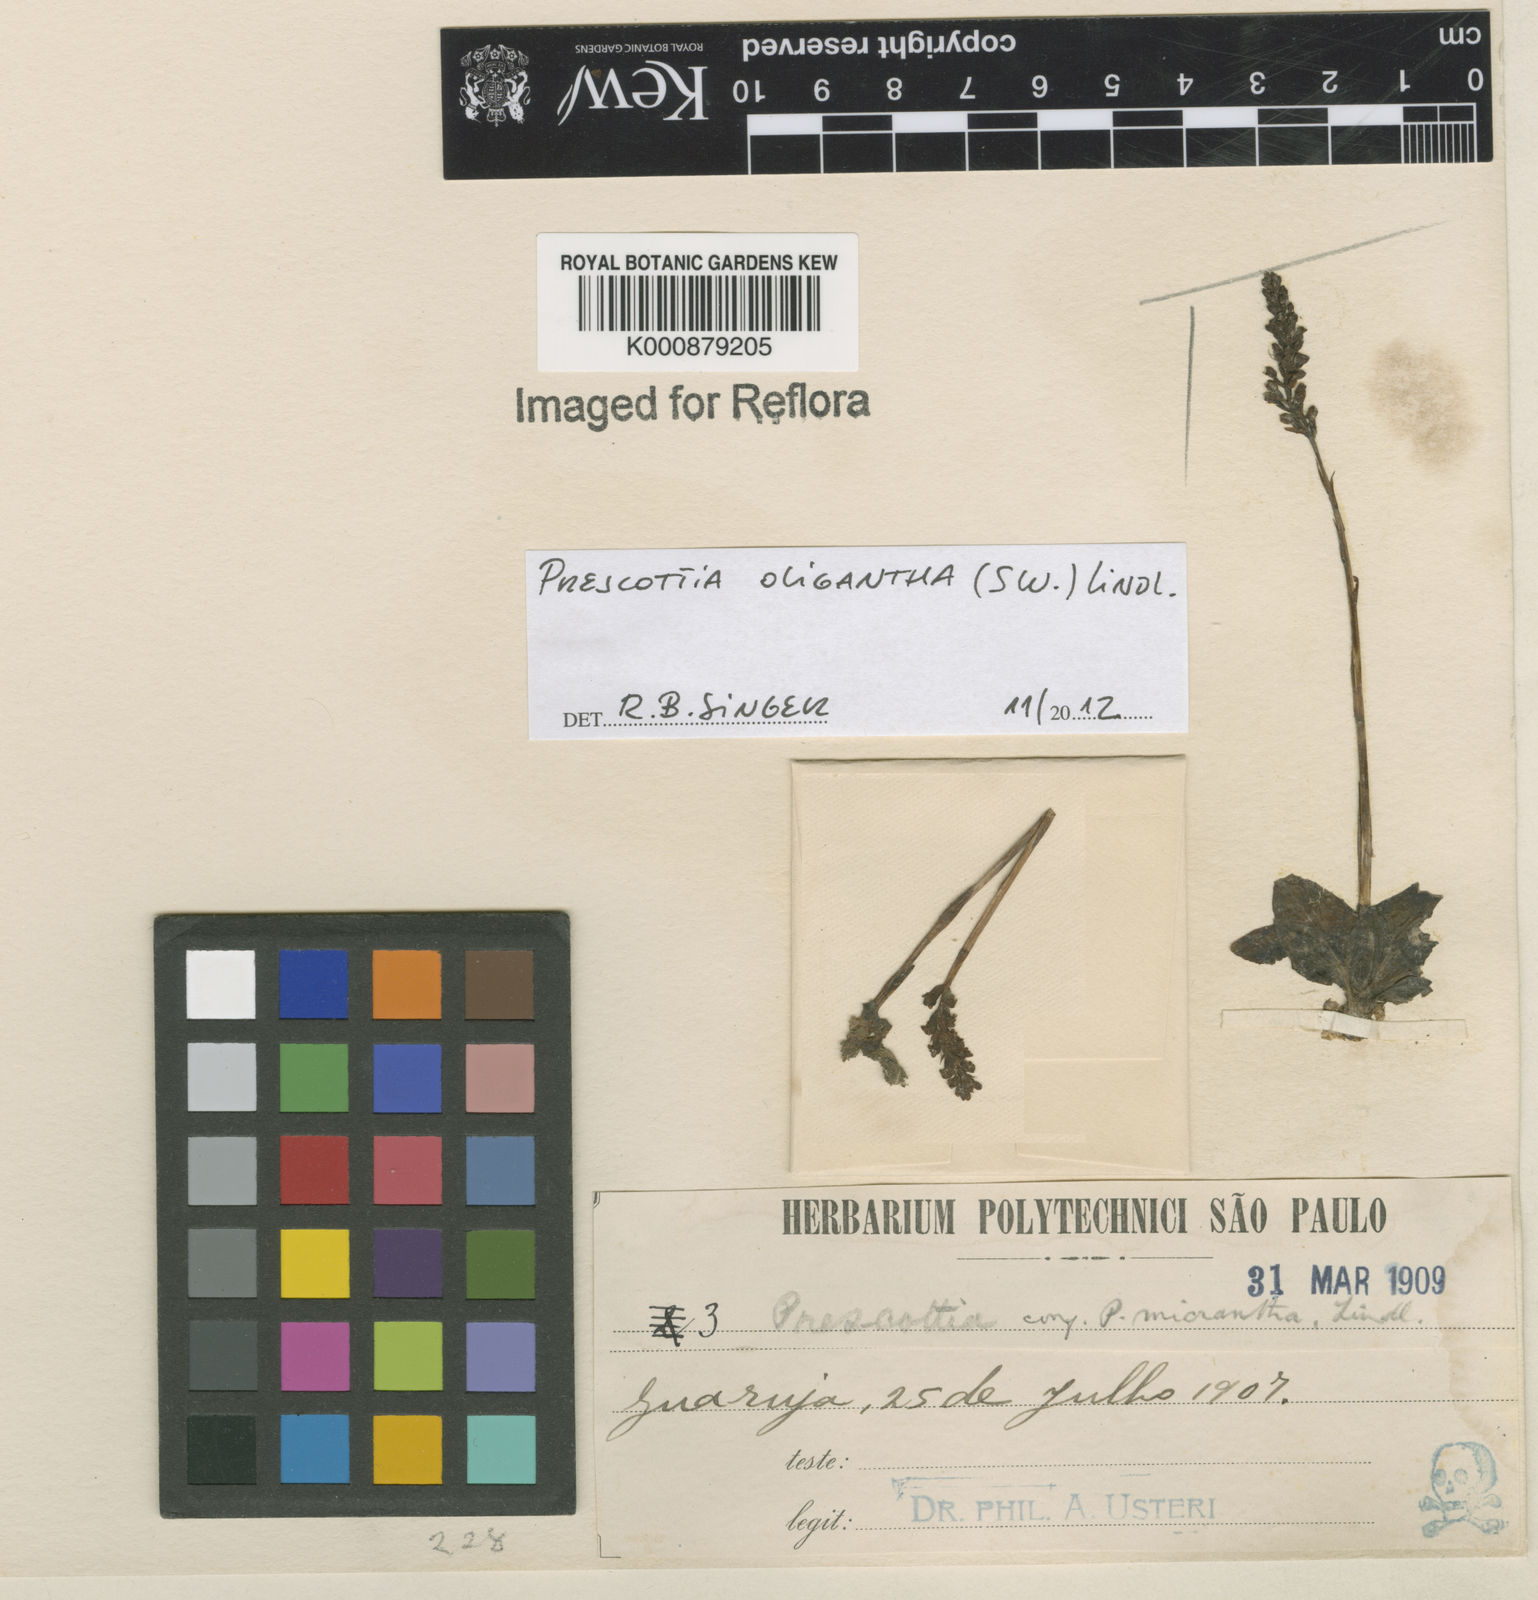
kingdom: Plantae
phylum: Tracheophyta
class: Liliopsida
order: Asparagales
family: Orchidaceae
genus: Prescottia
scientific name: Prescottia oligantha
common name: Small prescott orchid
